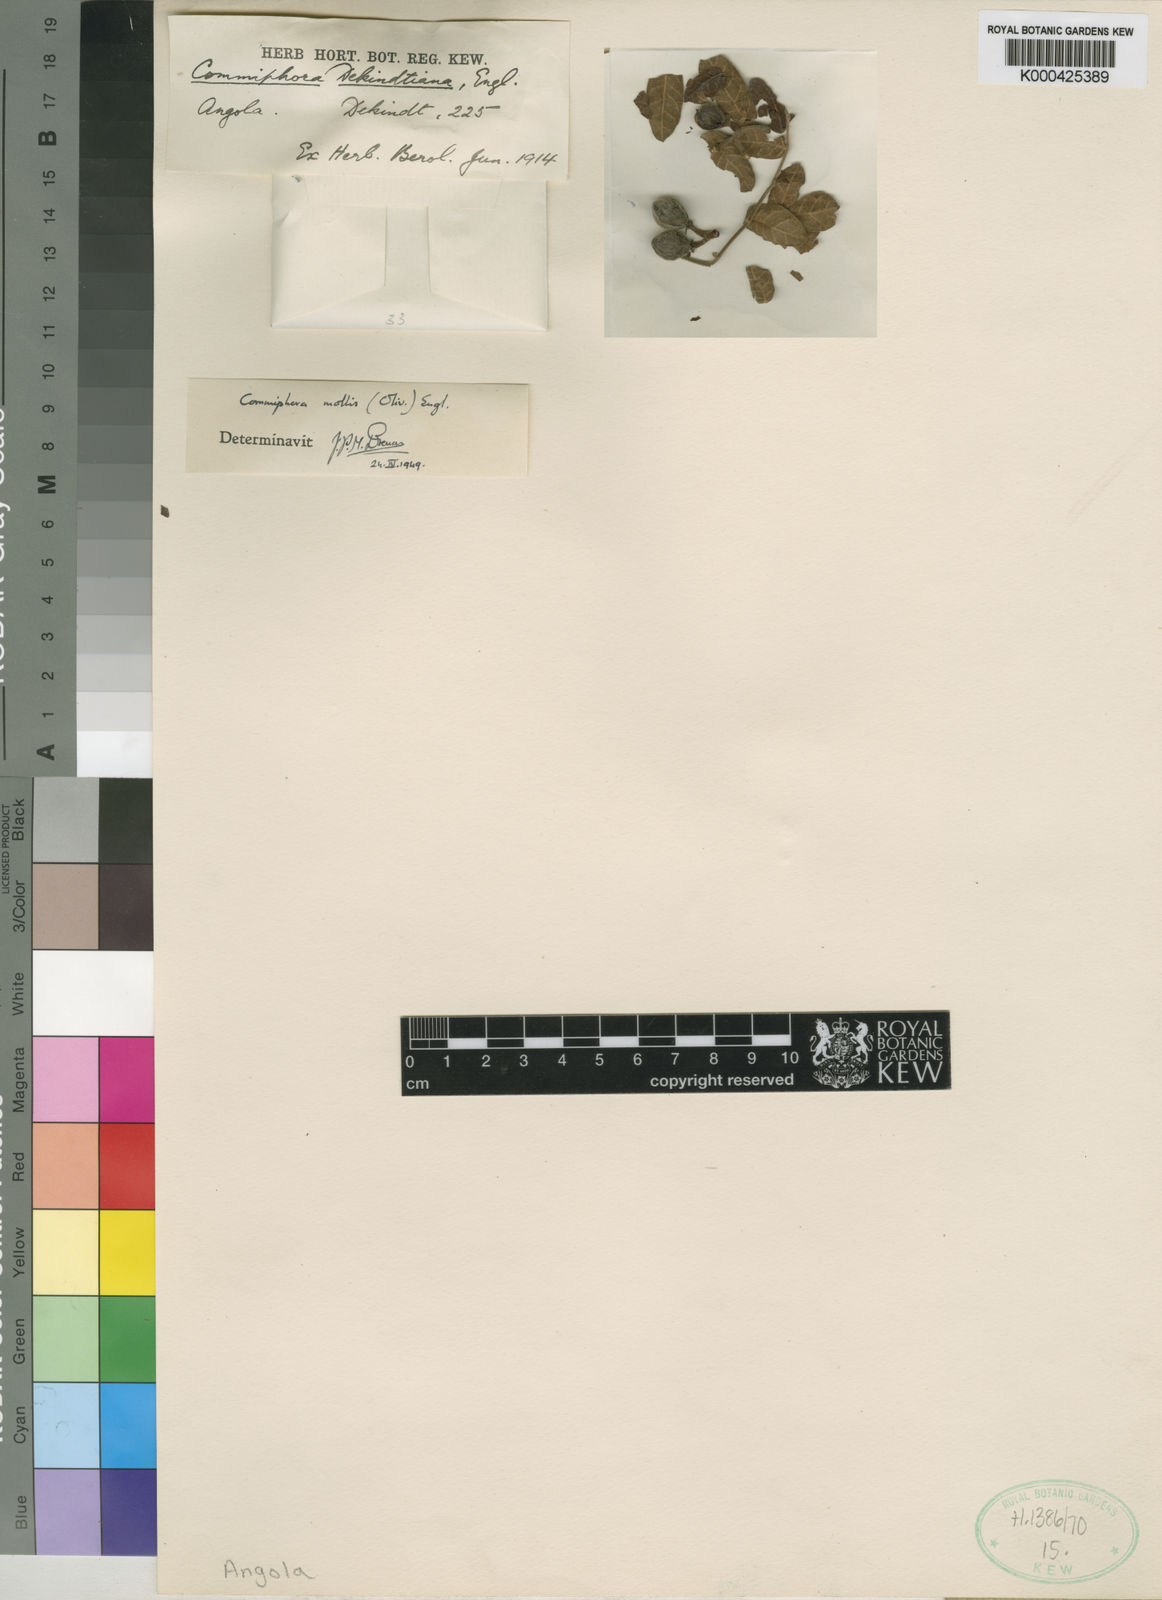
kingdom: Plantae
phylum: Tracheophyta
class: Magnoliopsida
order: Sapindales
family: Burseraceae
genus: Commiphora
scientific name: Commiphora mollis
